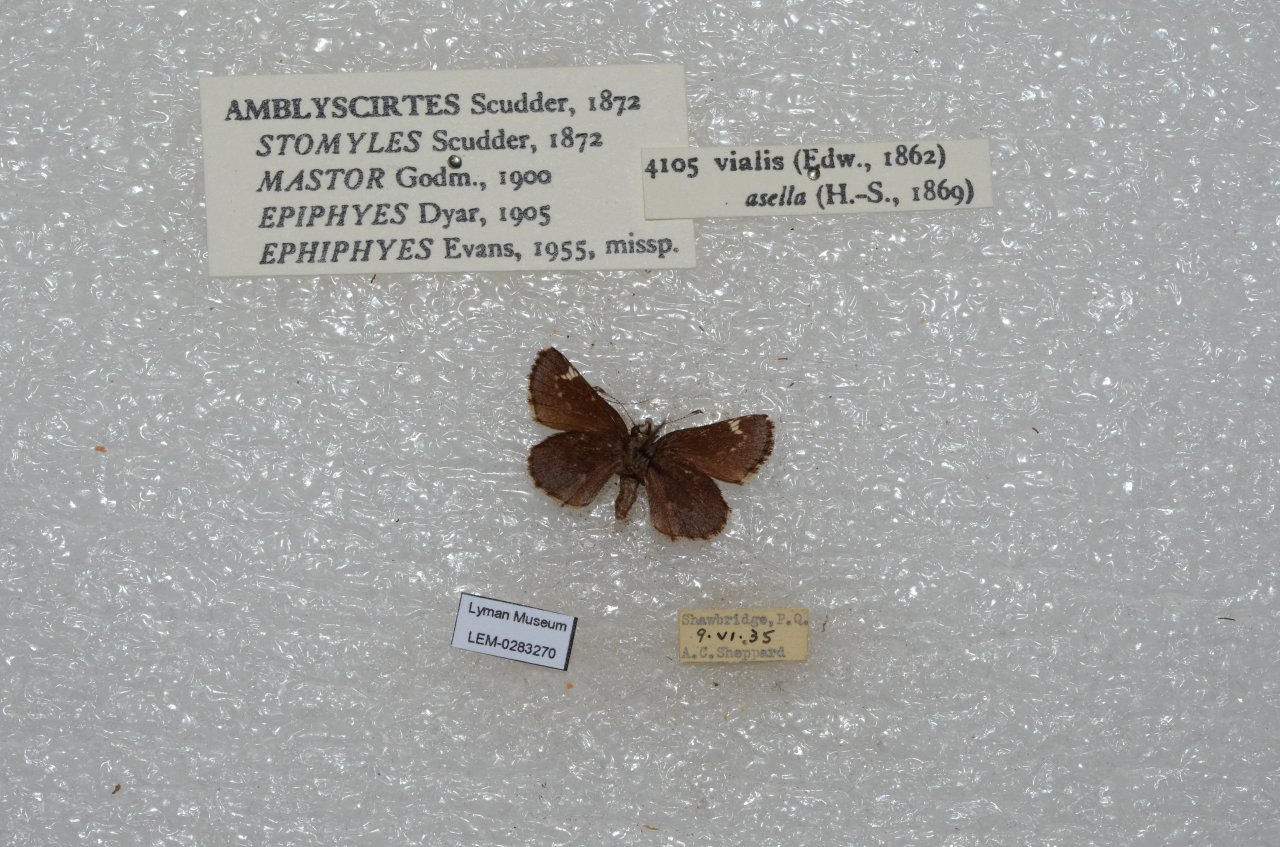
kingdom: Animalia
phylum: Arthropoda
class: Insecta
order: Lepidoptera
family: Hesperiidae
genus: Mastor
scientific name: Mastor vialis
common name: Common Roadside-Skipper
